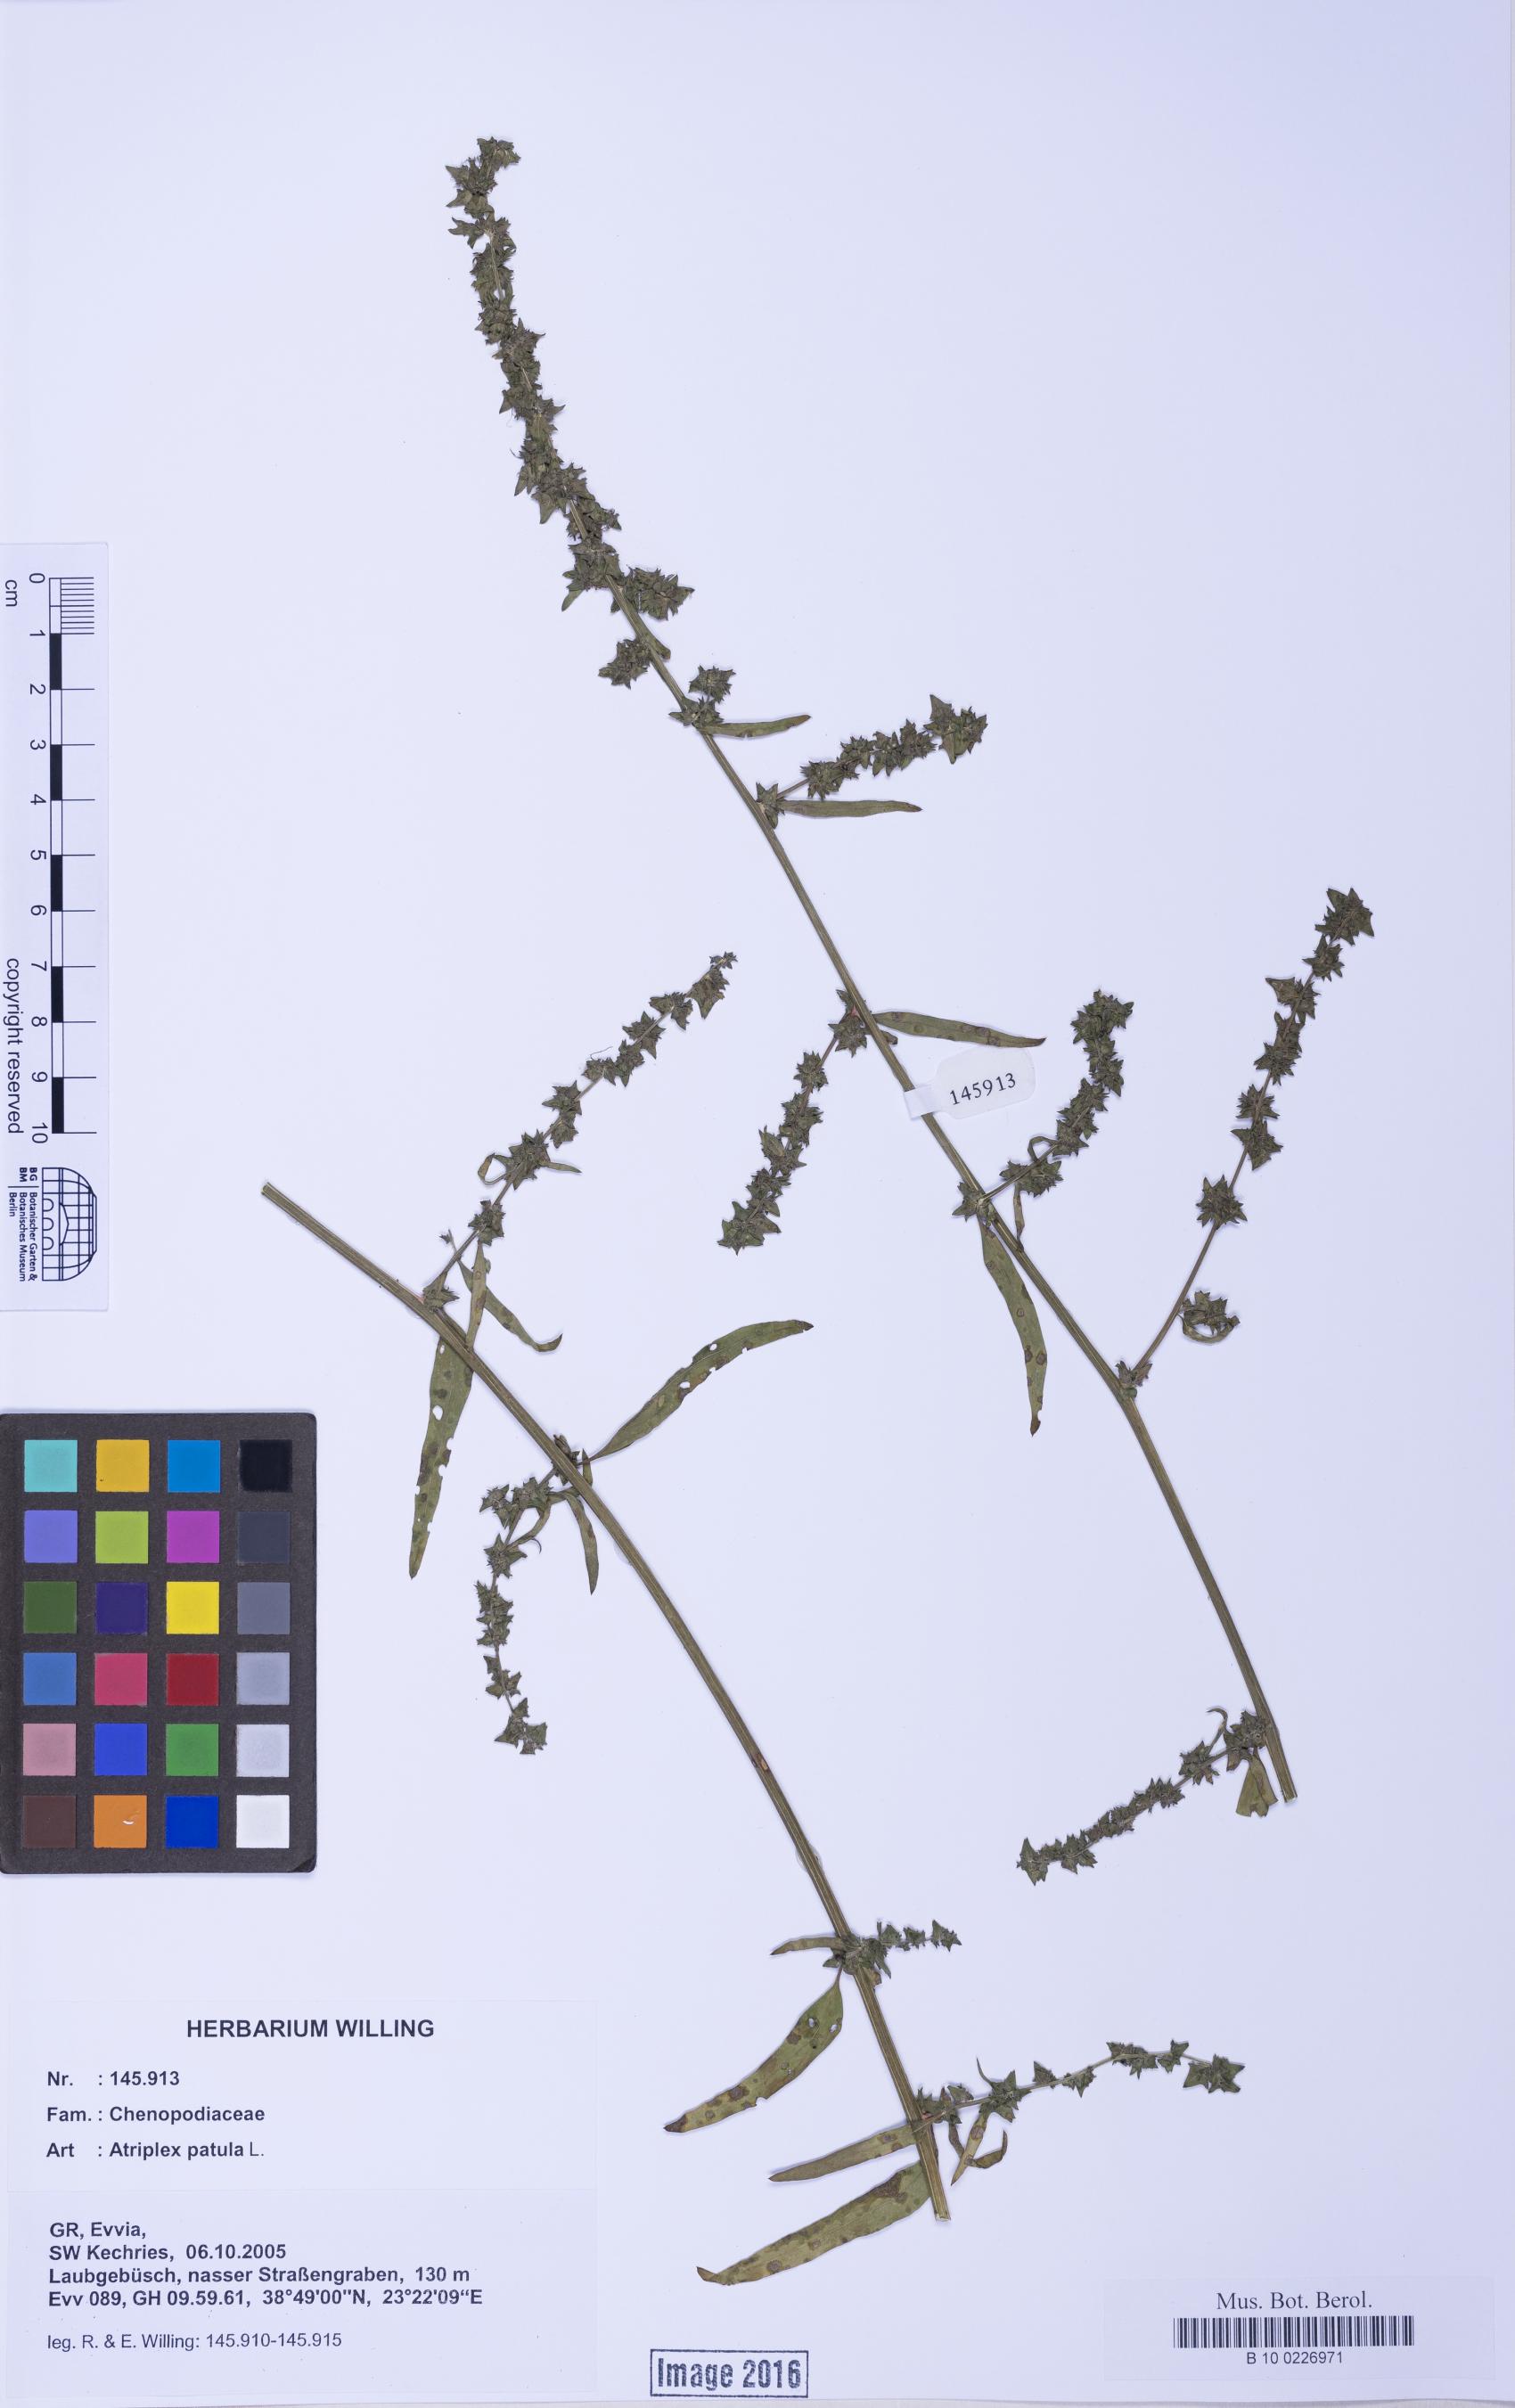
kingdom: Plantae
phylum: Tracheophyta
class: Magnoliopsida
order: Caryophyllales
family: Amaranthaceae
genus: Atriplex
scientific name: Atriplex patula
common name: Common orache
